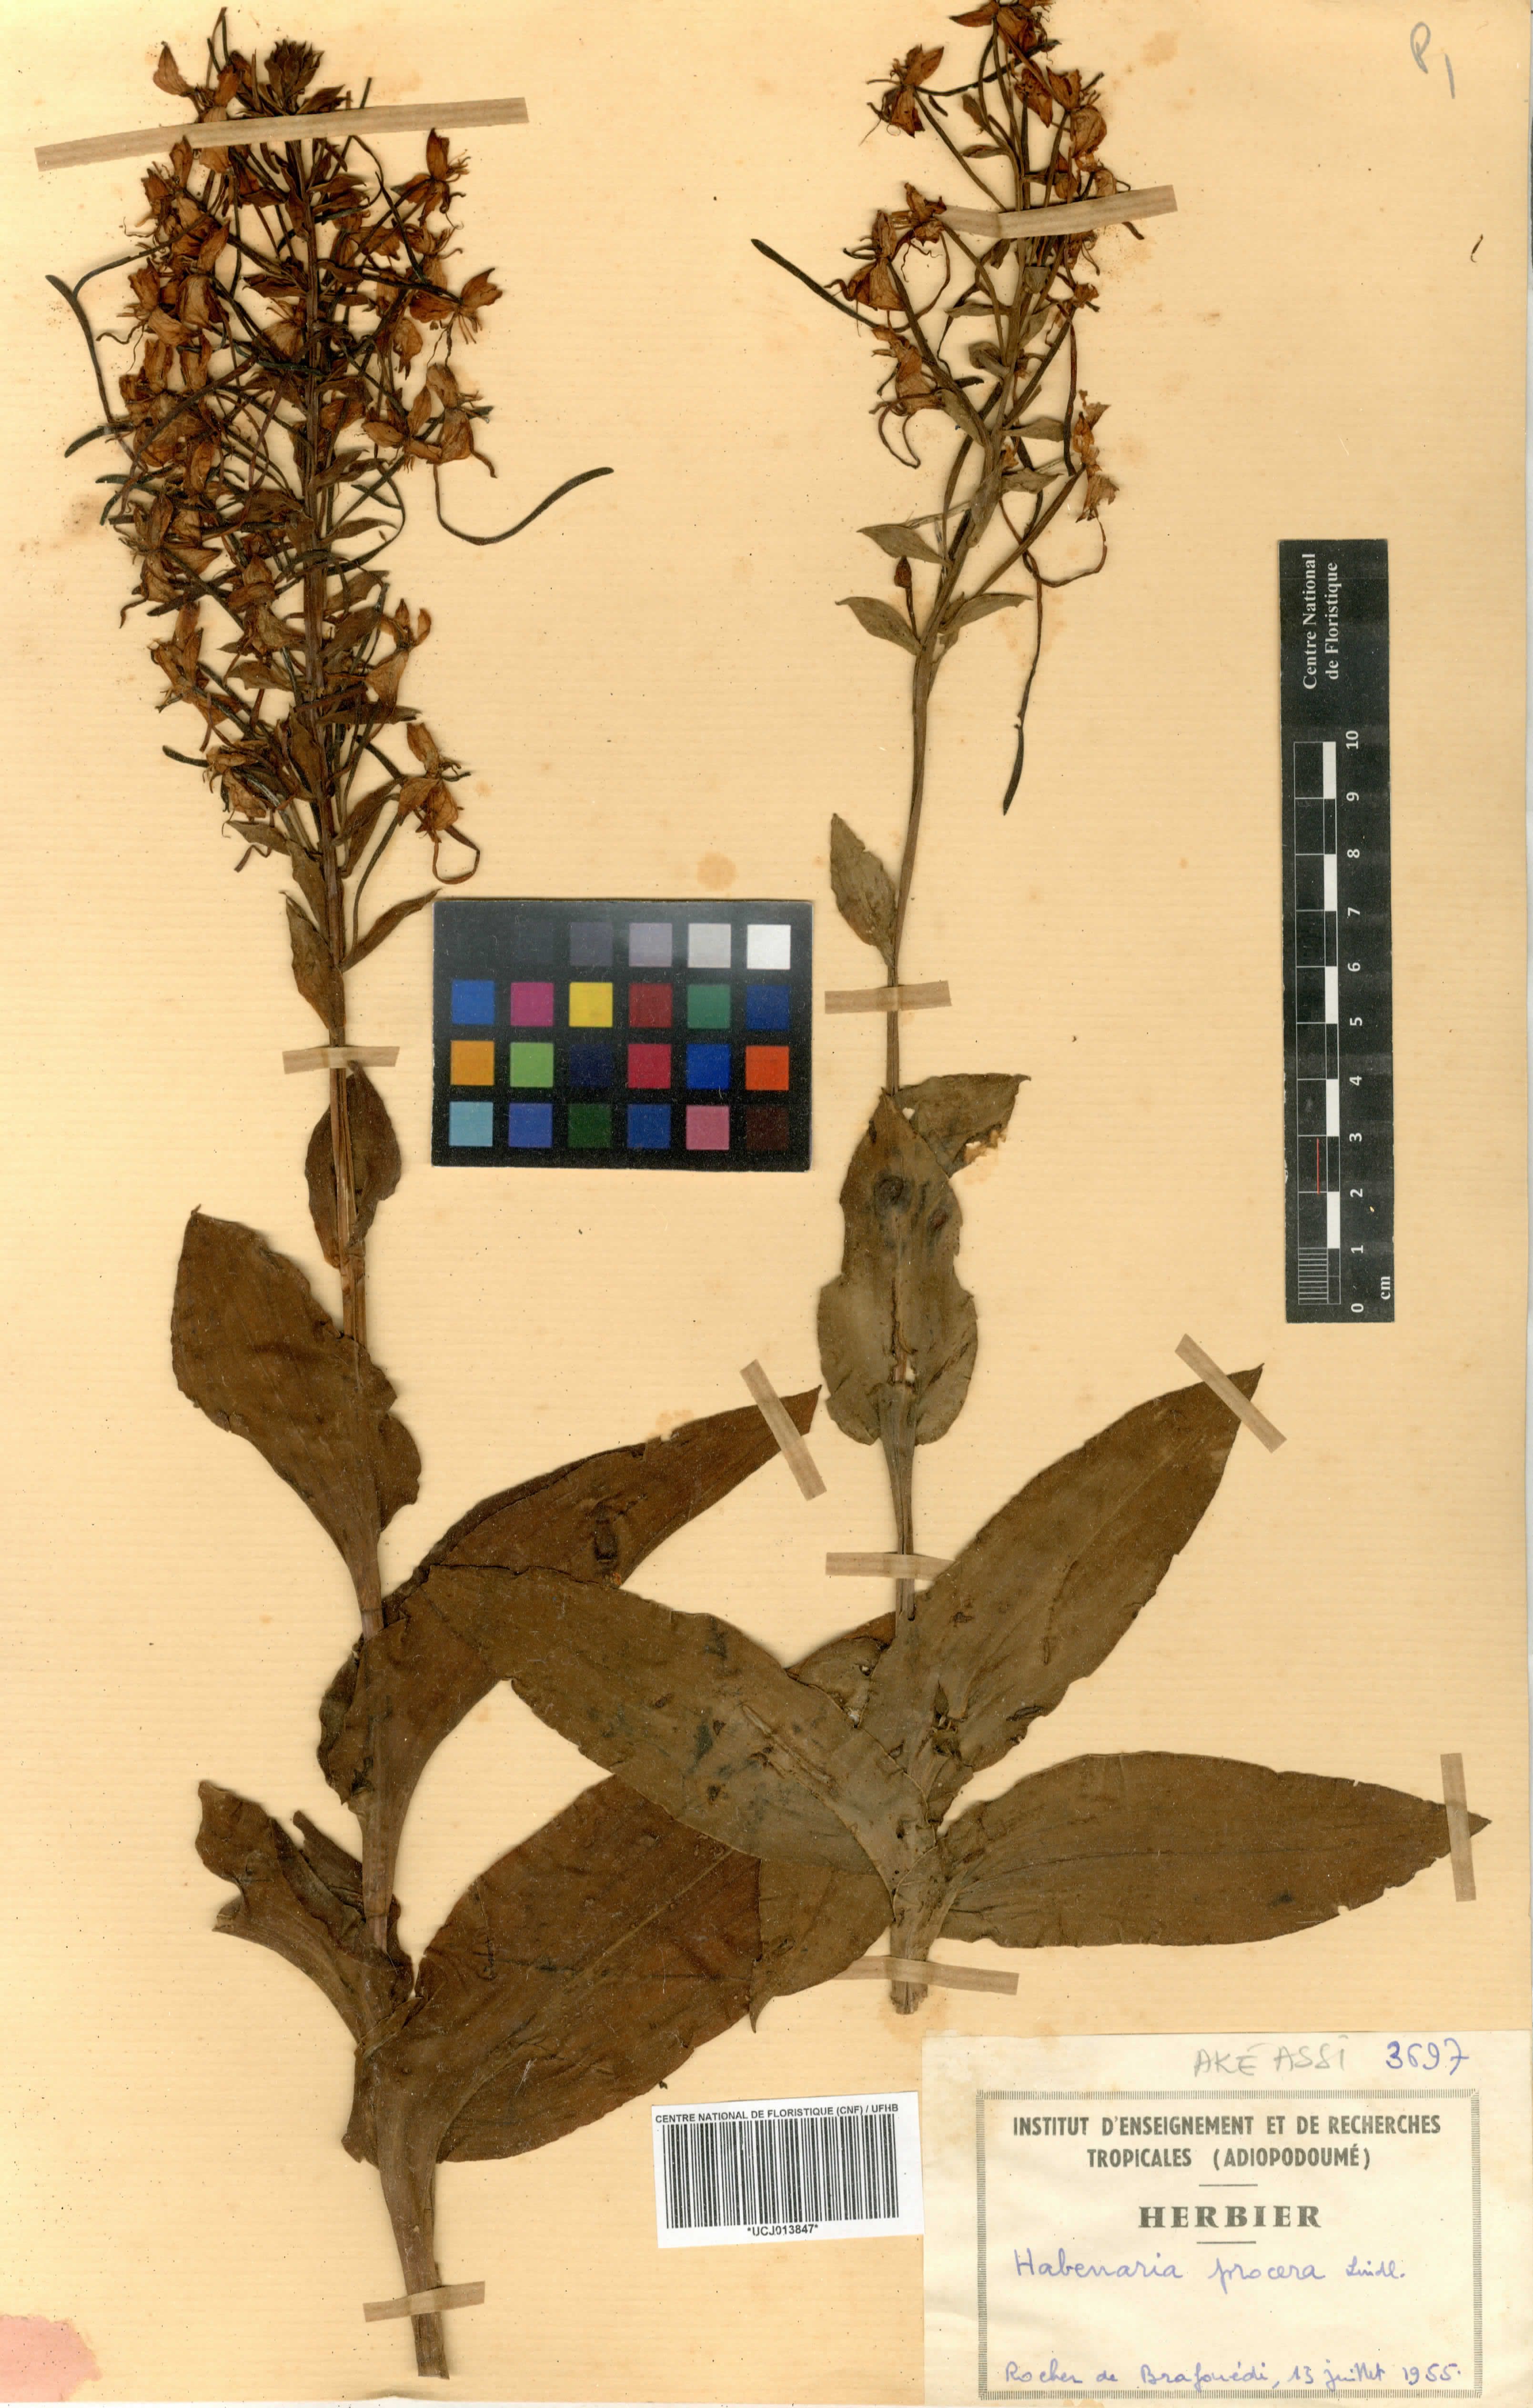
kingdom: Plantae
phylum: Tracheophyta
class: Liliopsida
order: Asparagales
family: Orchidaceae
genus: Habenaria
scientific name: Habenaria procera
